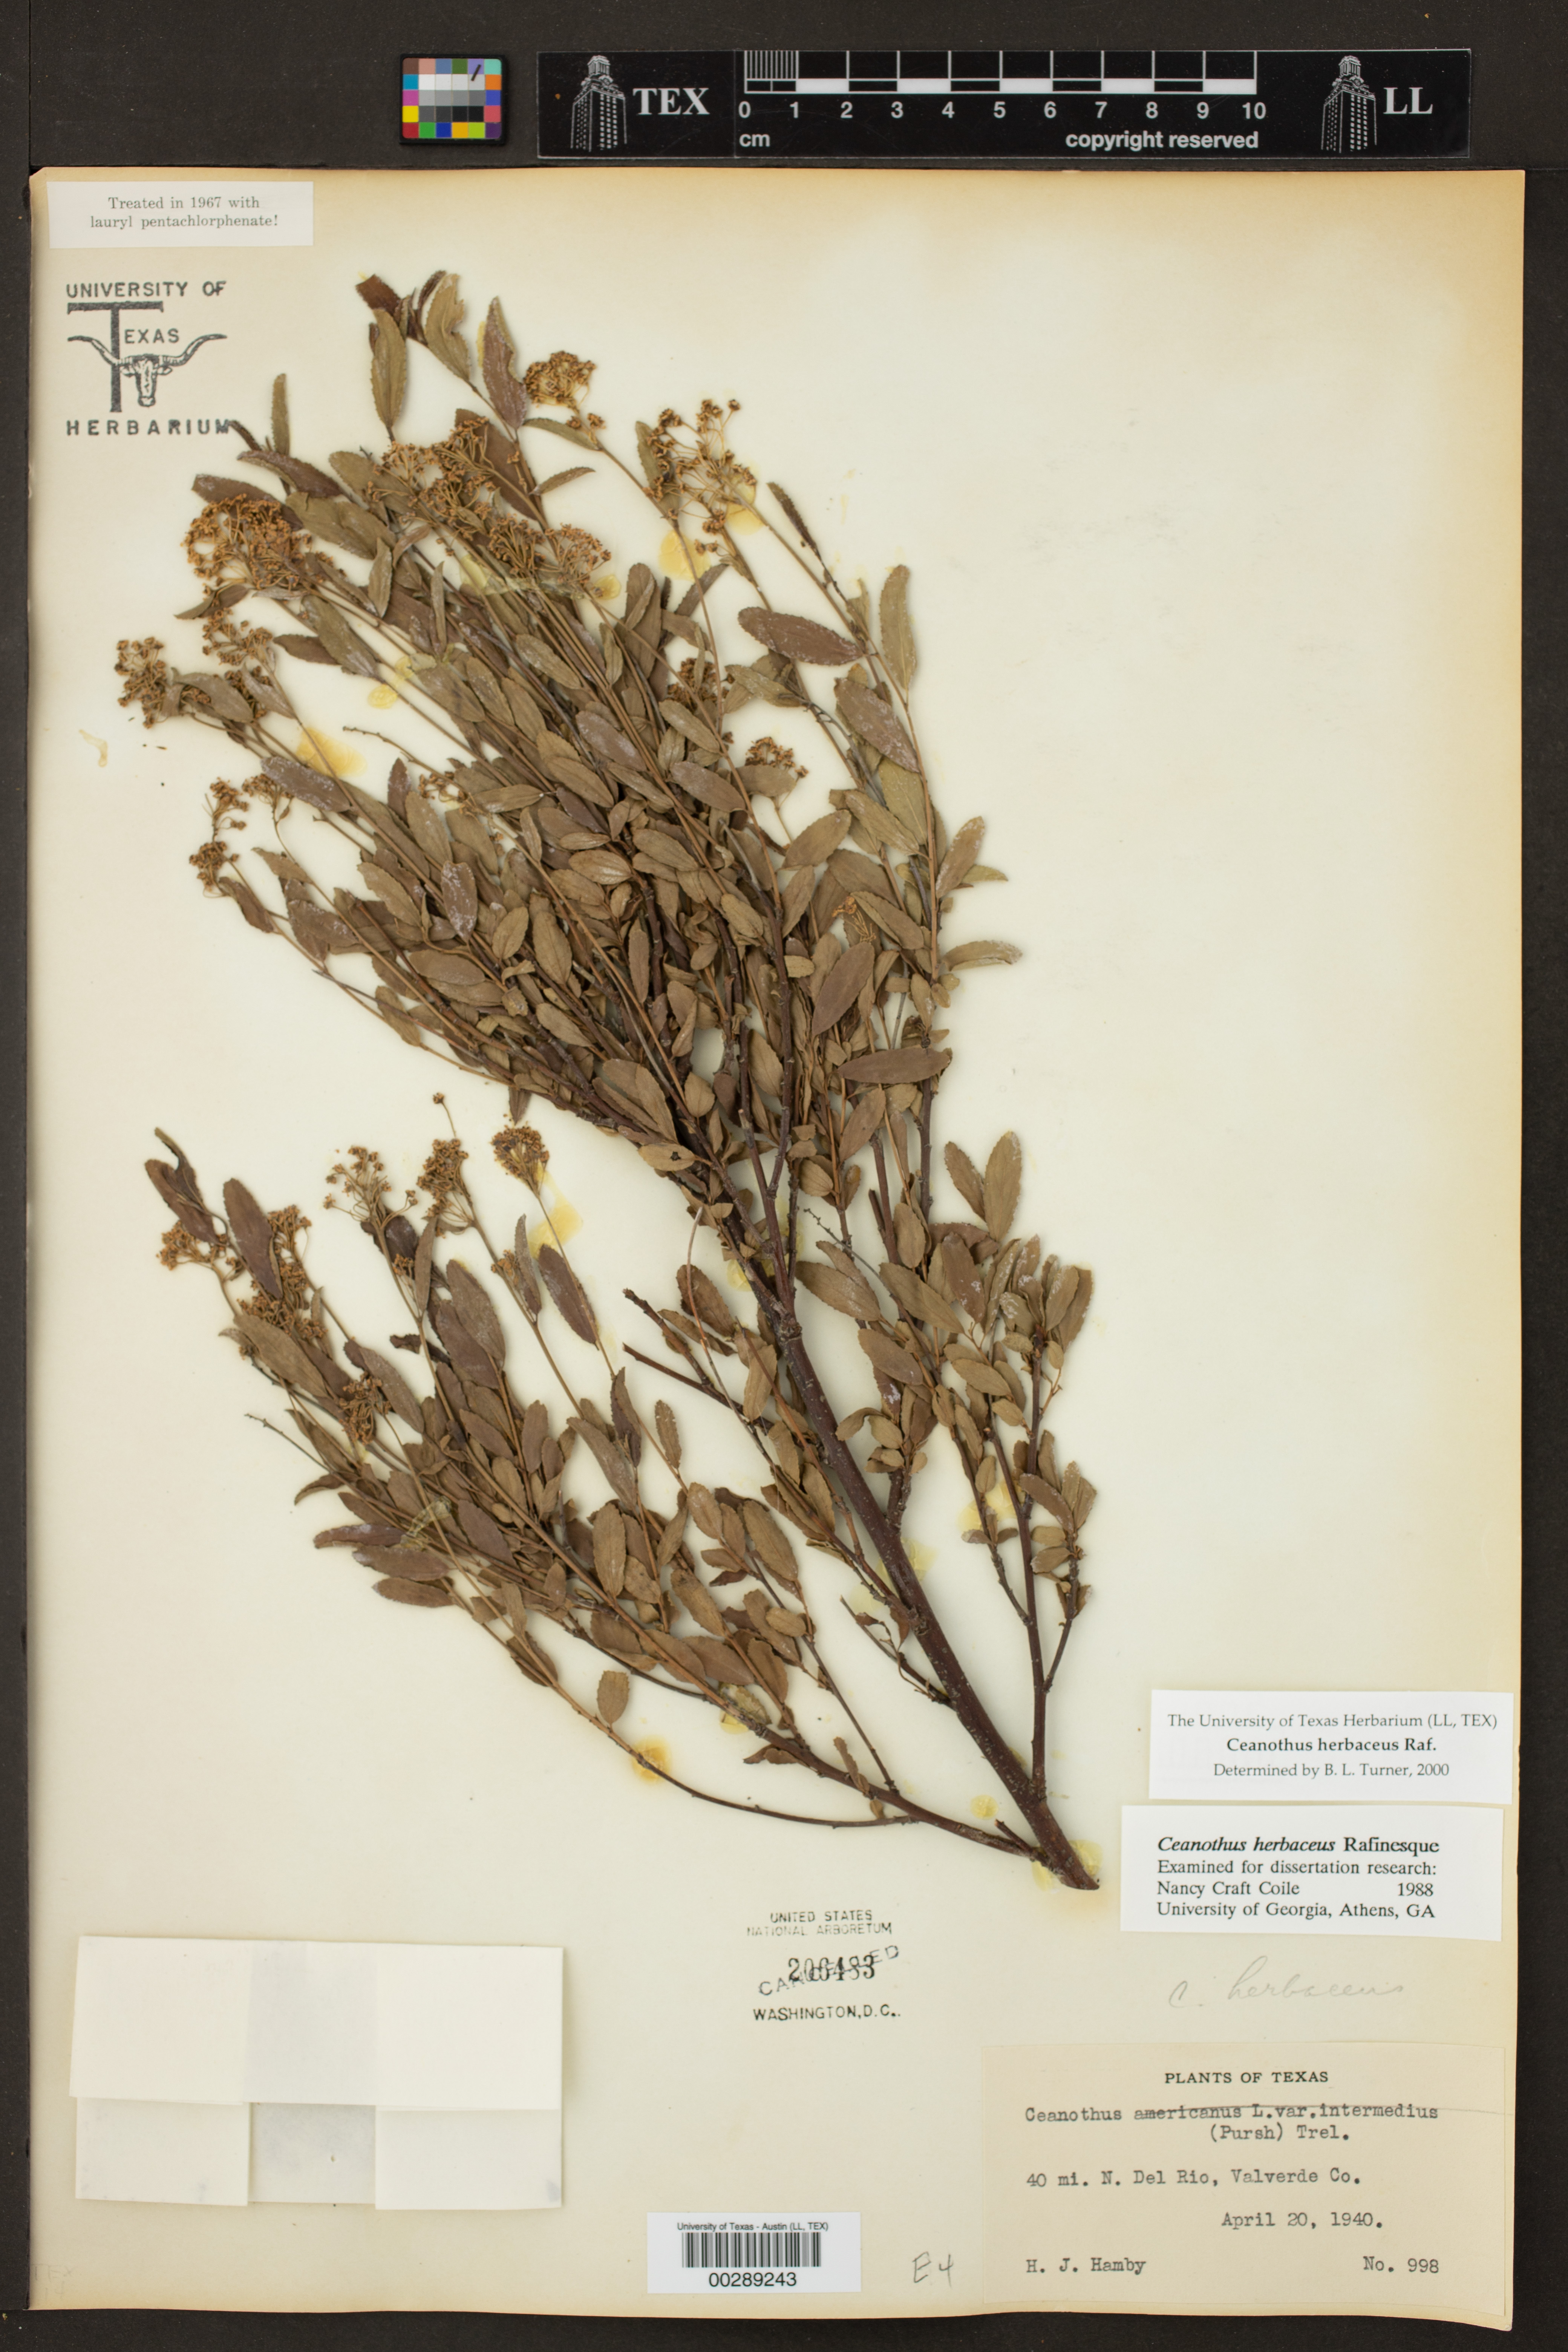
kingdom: Plantae
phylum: Tracheophyta
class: Magnoliopsida
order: Rosales
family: Rhamnaceae
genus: Ceanothus
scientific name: Ceanothus herbaceus
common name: Inland ceanothus
